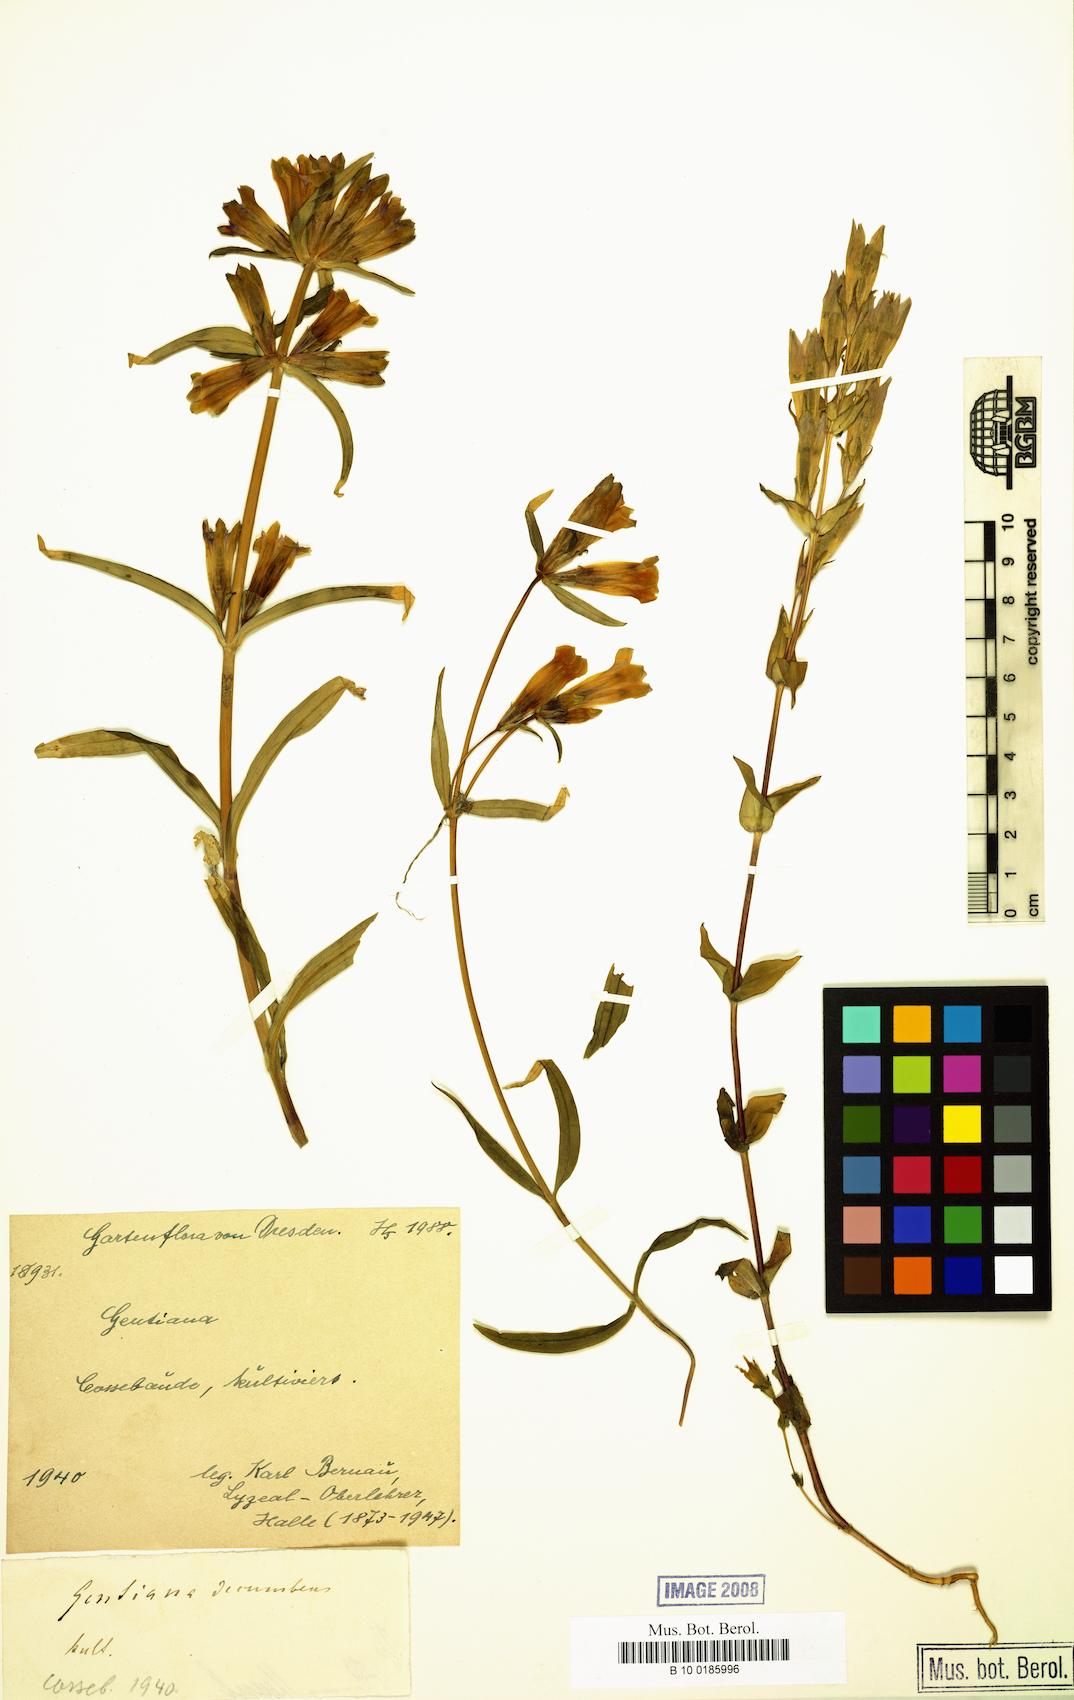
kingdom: Plantae
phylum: Tracheophyta
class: Magnoliopsida
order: Gentianales
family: Gentianaceae
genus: Gentiana
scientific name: Gentiana decumbens
